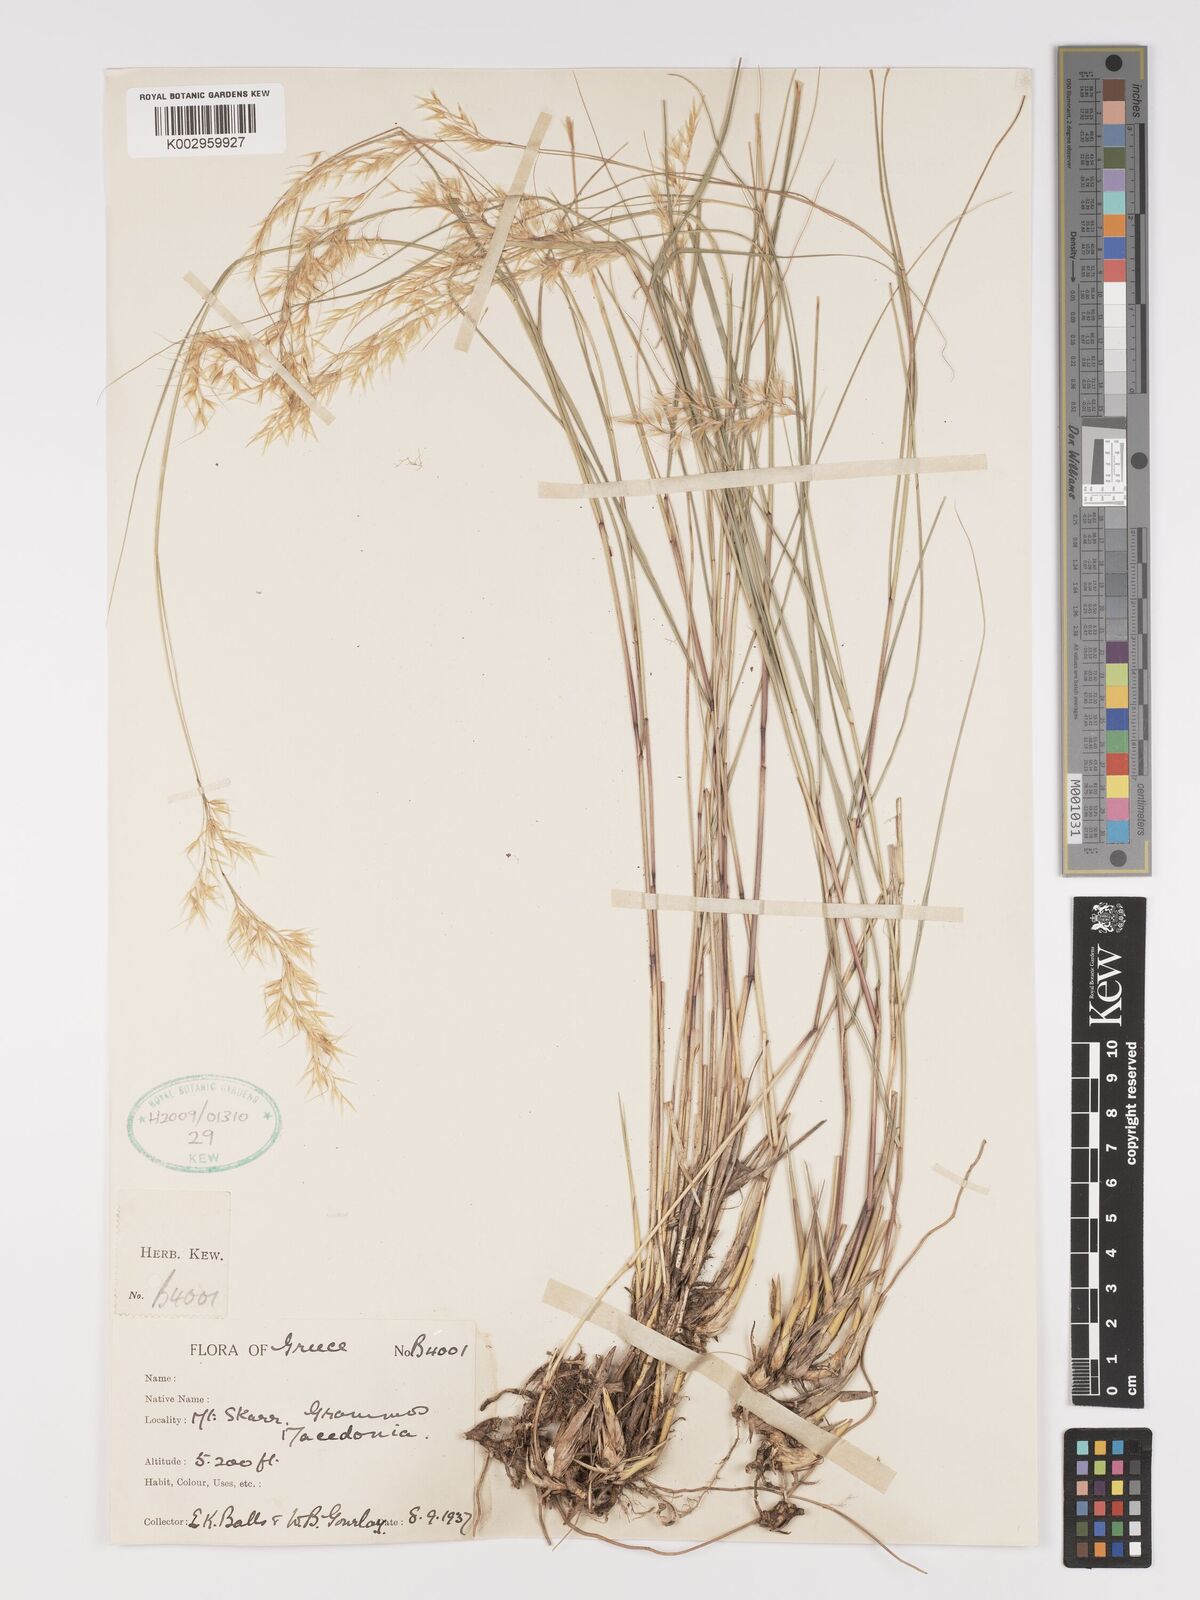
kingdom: Plantae
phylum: Tracheophyta
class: Liliopsida
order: Poales
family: Poaceae
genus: Stipa
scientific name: Stipa
